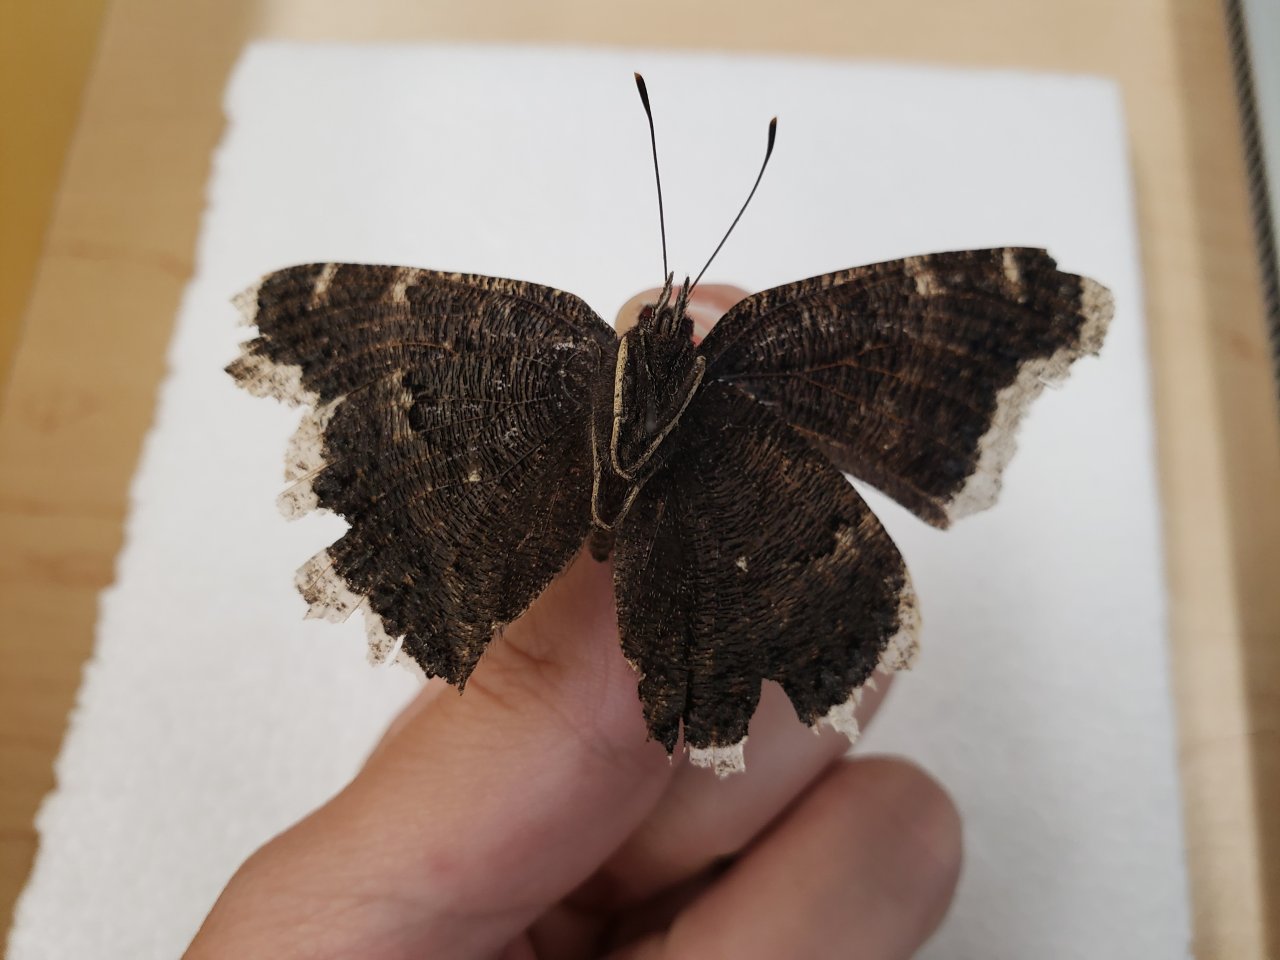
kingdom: Animalia
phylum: Arthropoda
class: Insecta
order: Lepidoptera
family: Nymphalidae
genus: Nymphalis
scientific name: Nymphalis antiopa
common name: Mourning Cloak
